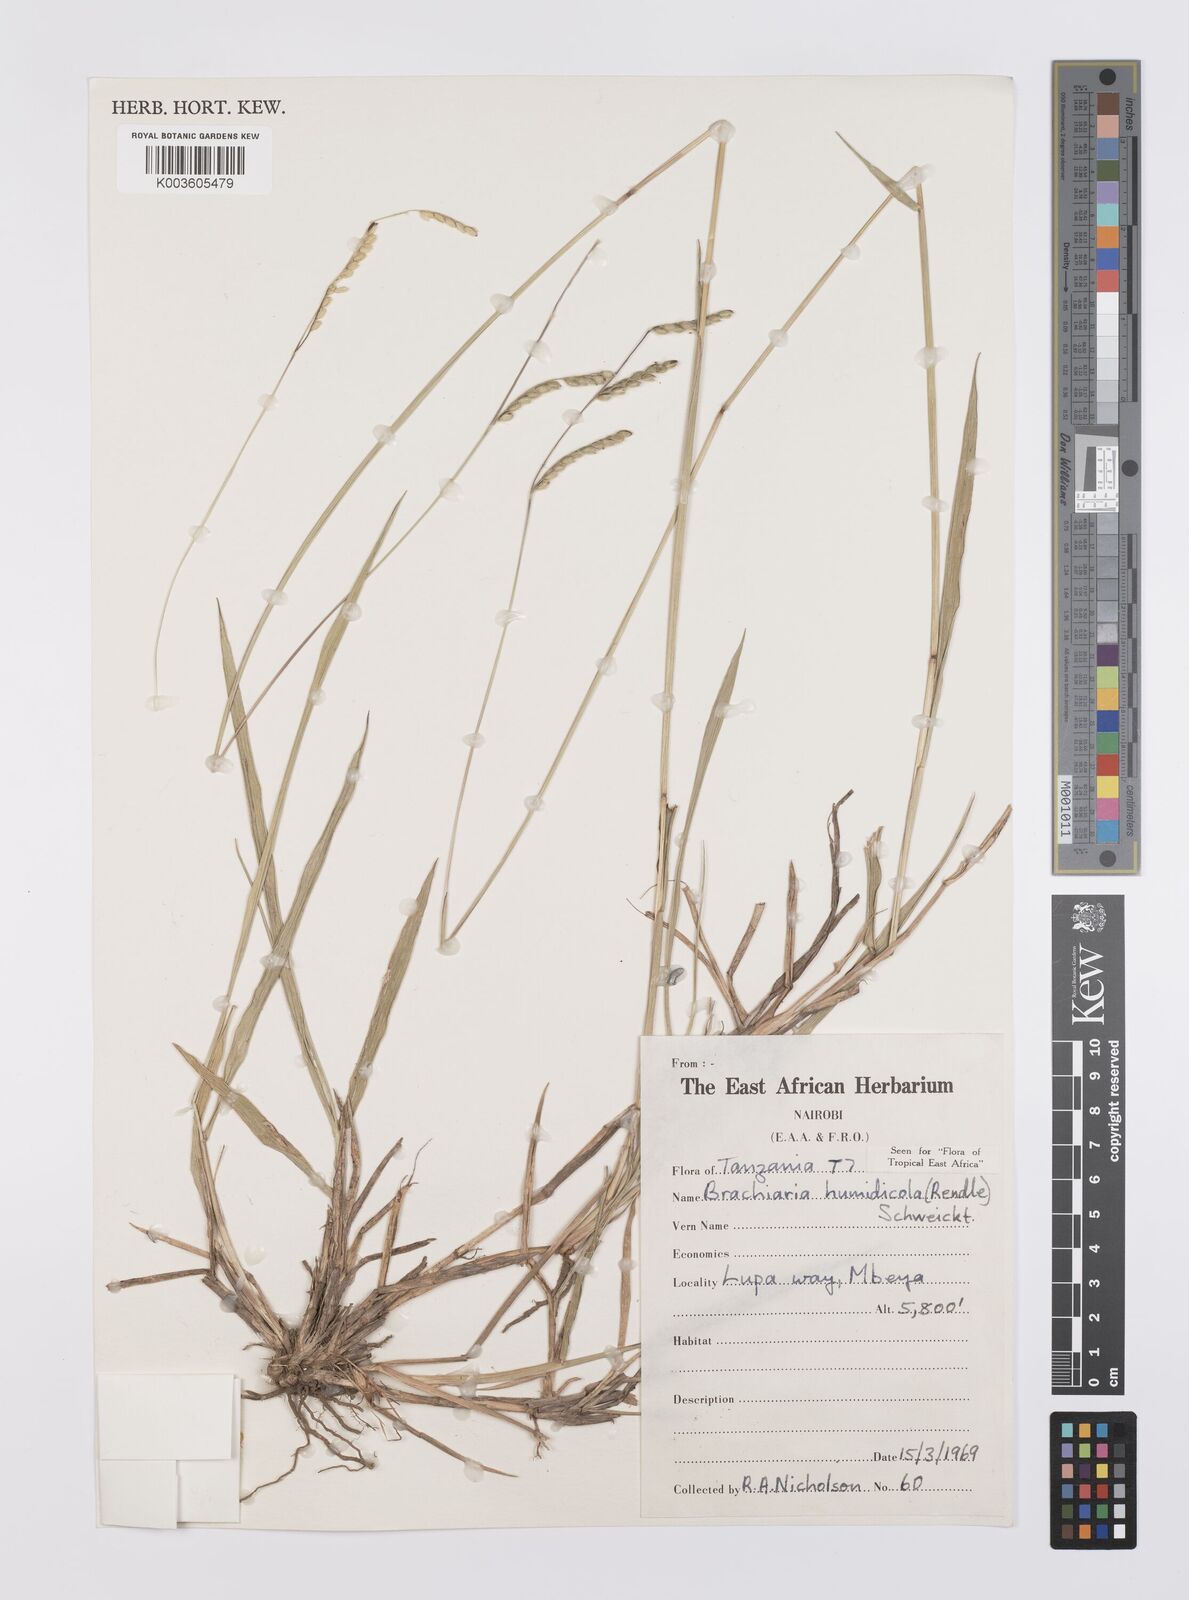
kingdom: Plantae
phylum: Tracheophyta
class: Liliopsida
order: Poales
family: Poaceae
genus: Urochloa
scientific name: Urochloa dictyoneura
